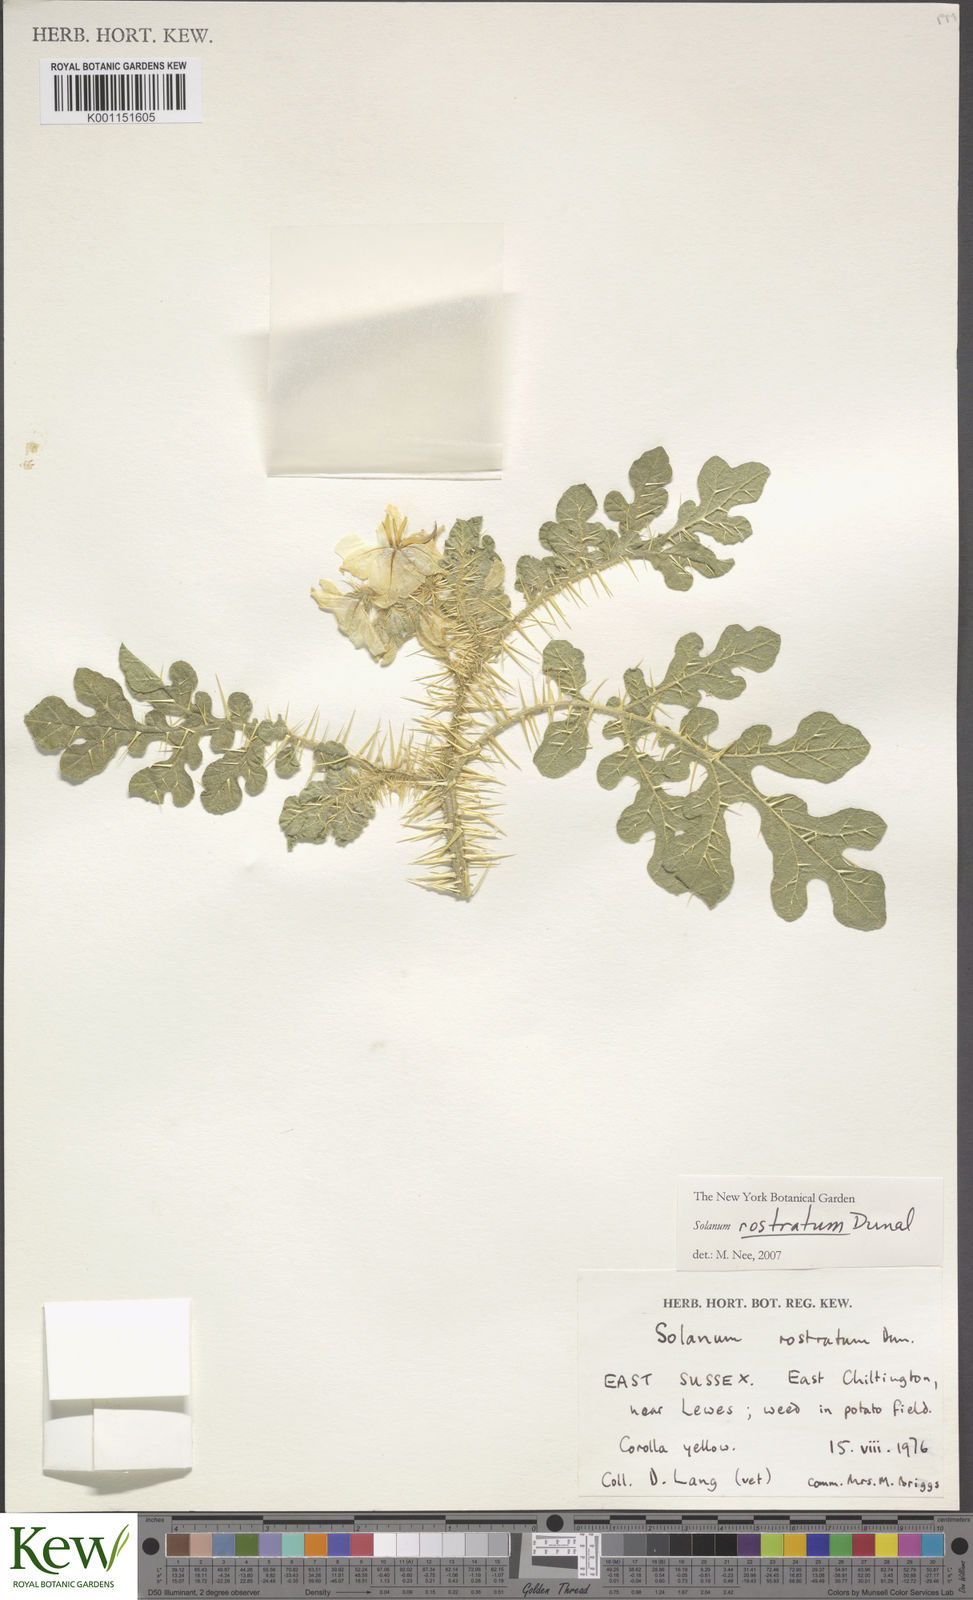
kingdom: Plantae
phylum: Tracheophyta
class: Magnoliopsida
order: Solanales
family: Solanaceae
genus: Solanum
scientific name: Solanum angustifolium
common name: Buffalobur nightshade
